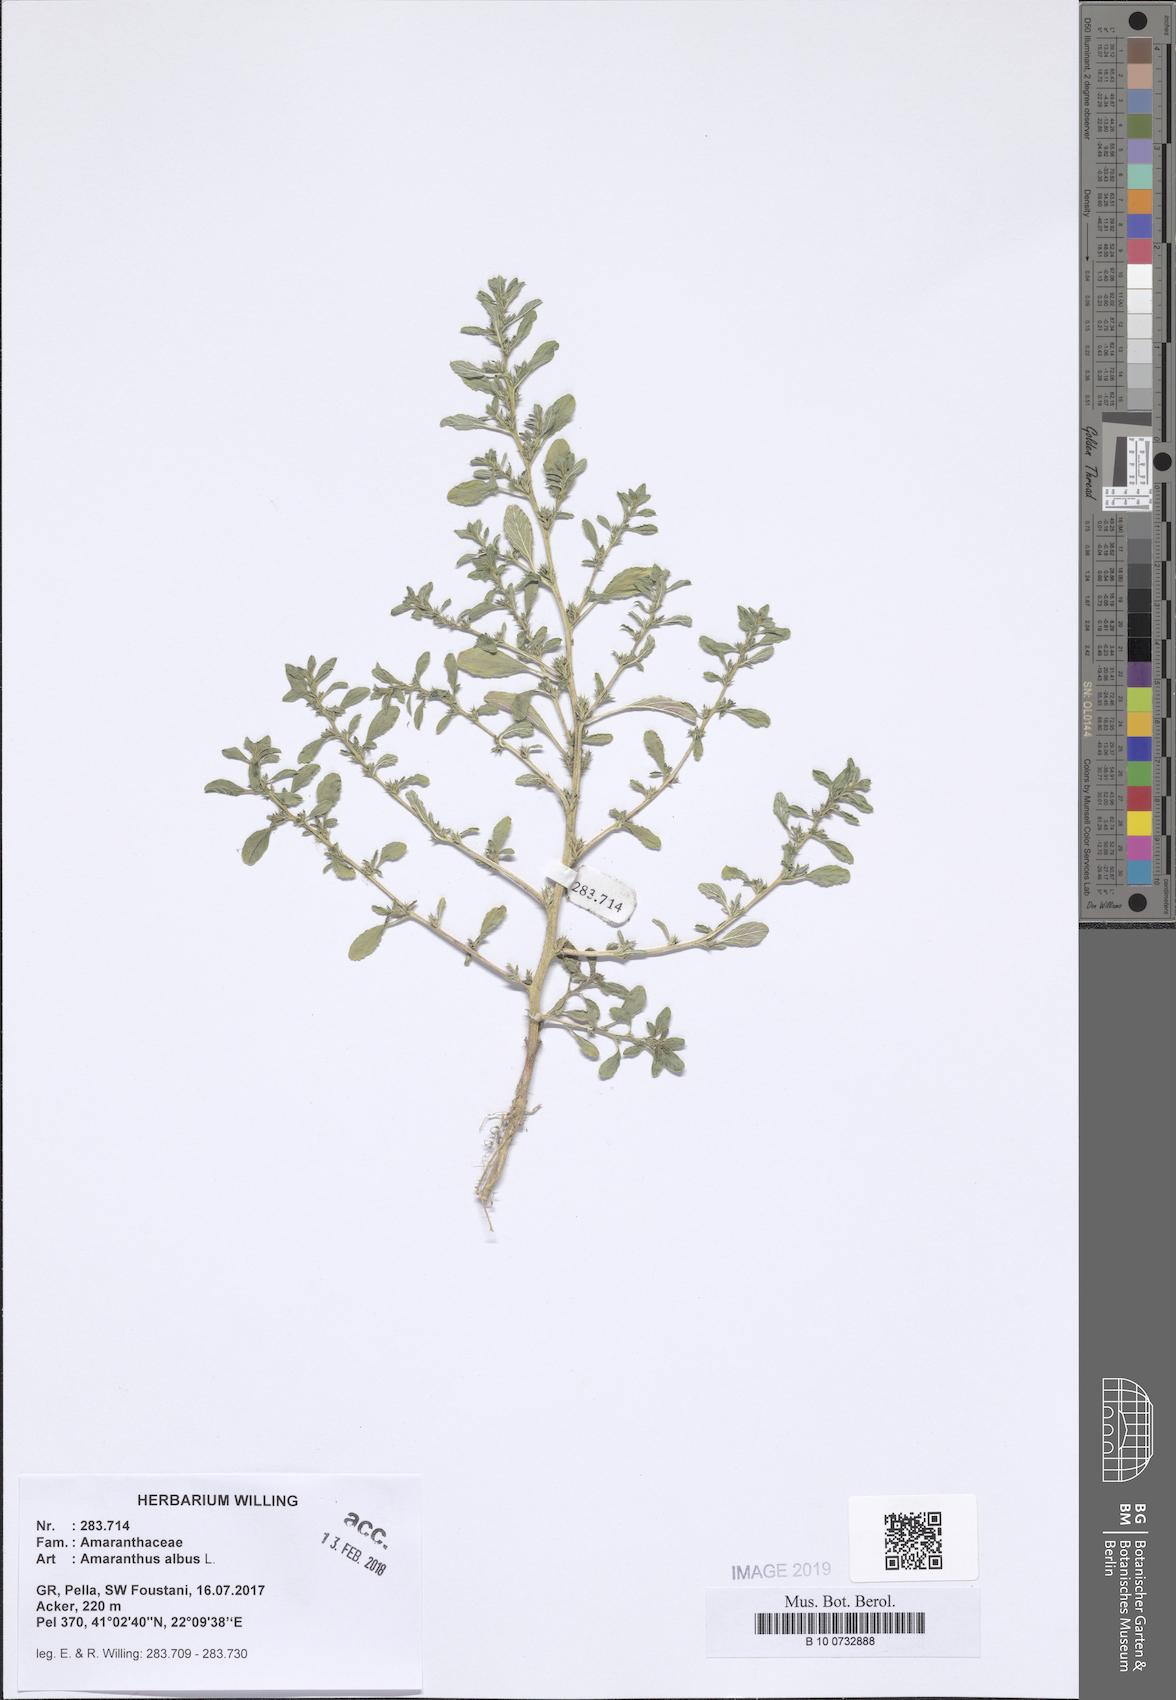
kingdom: Plantae
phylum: Tracheophyta
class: Magnoliopsida
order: Caryophyllales
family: Amaranthaceae
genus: Amaranthus
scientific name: Amaranthus albus
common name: White pigweed
